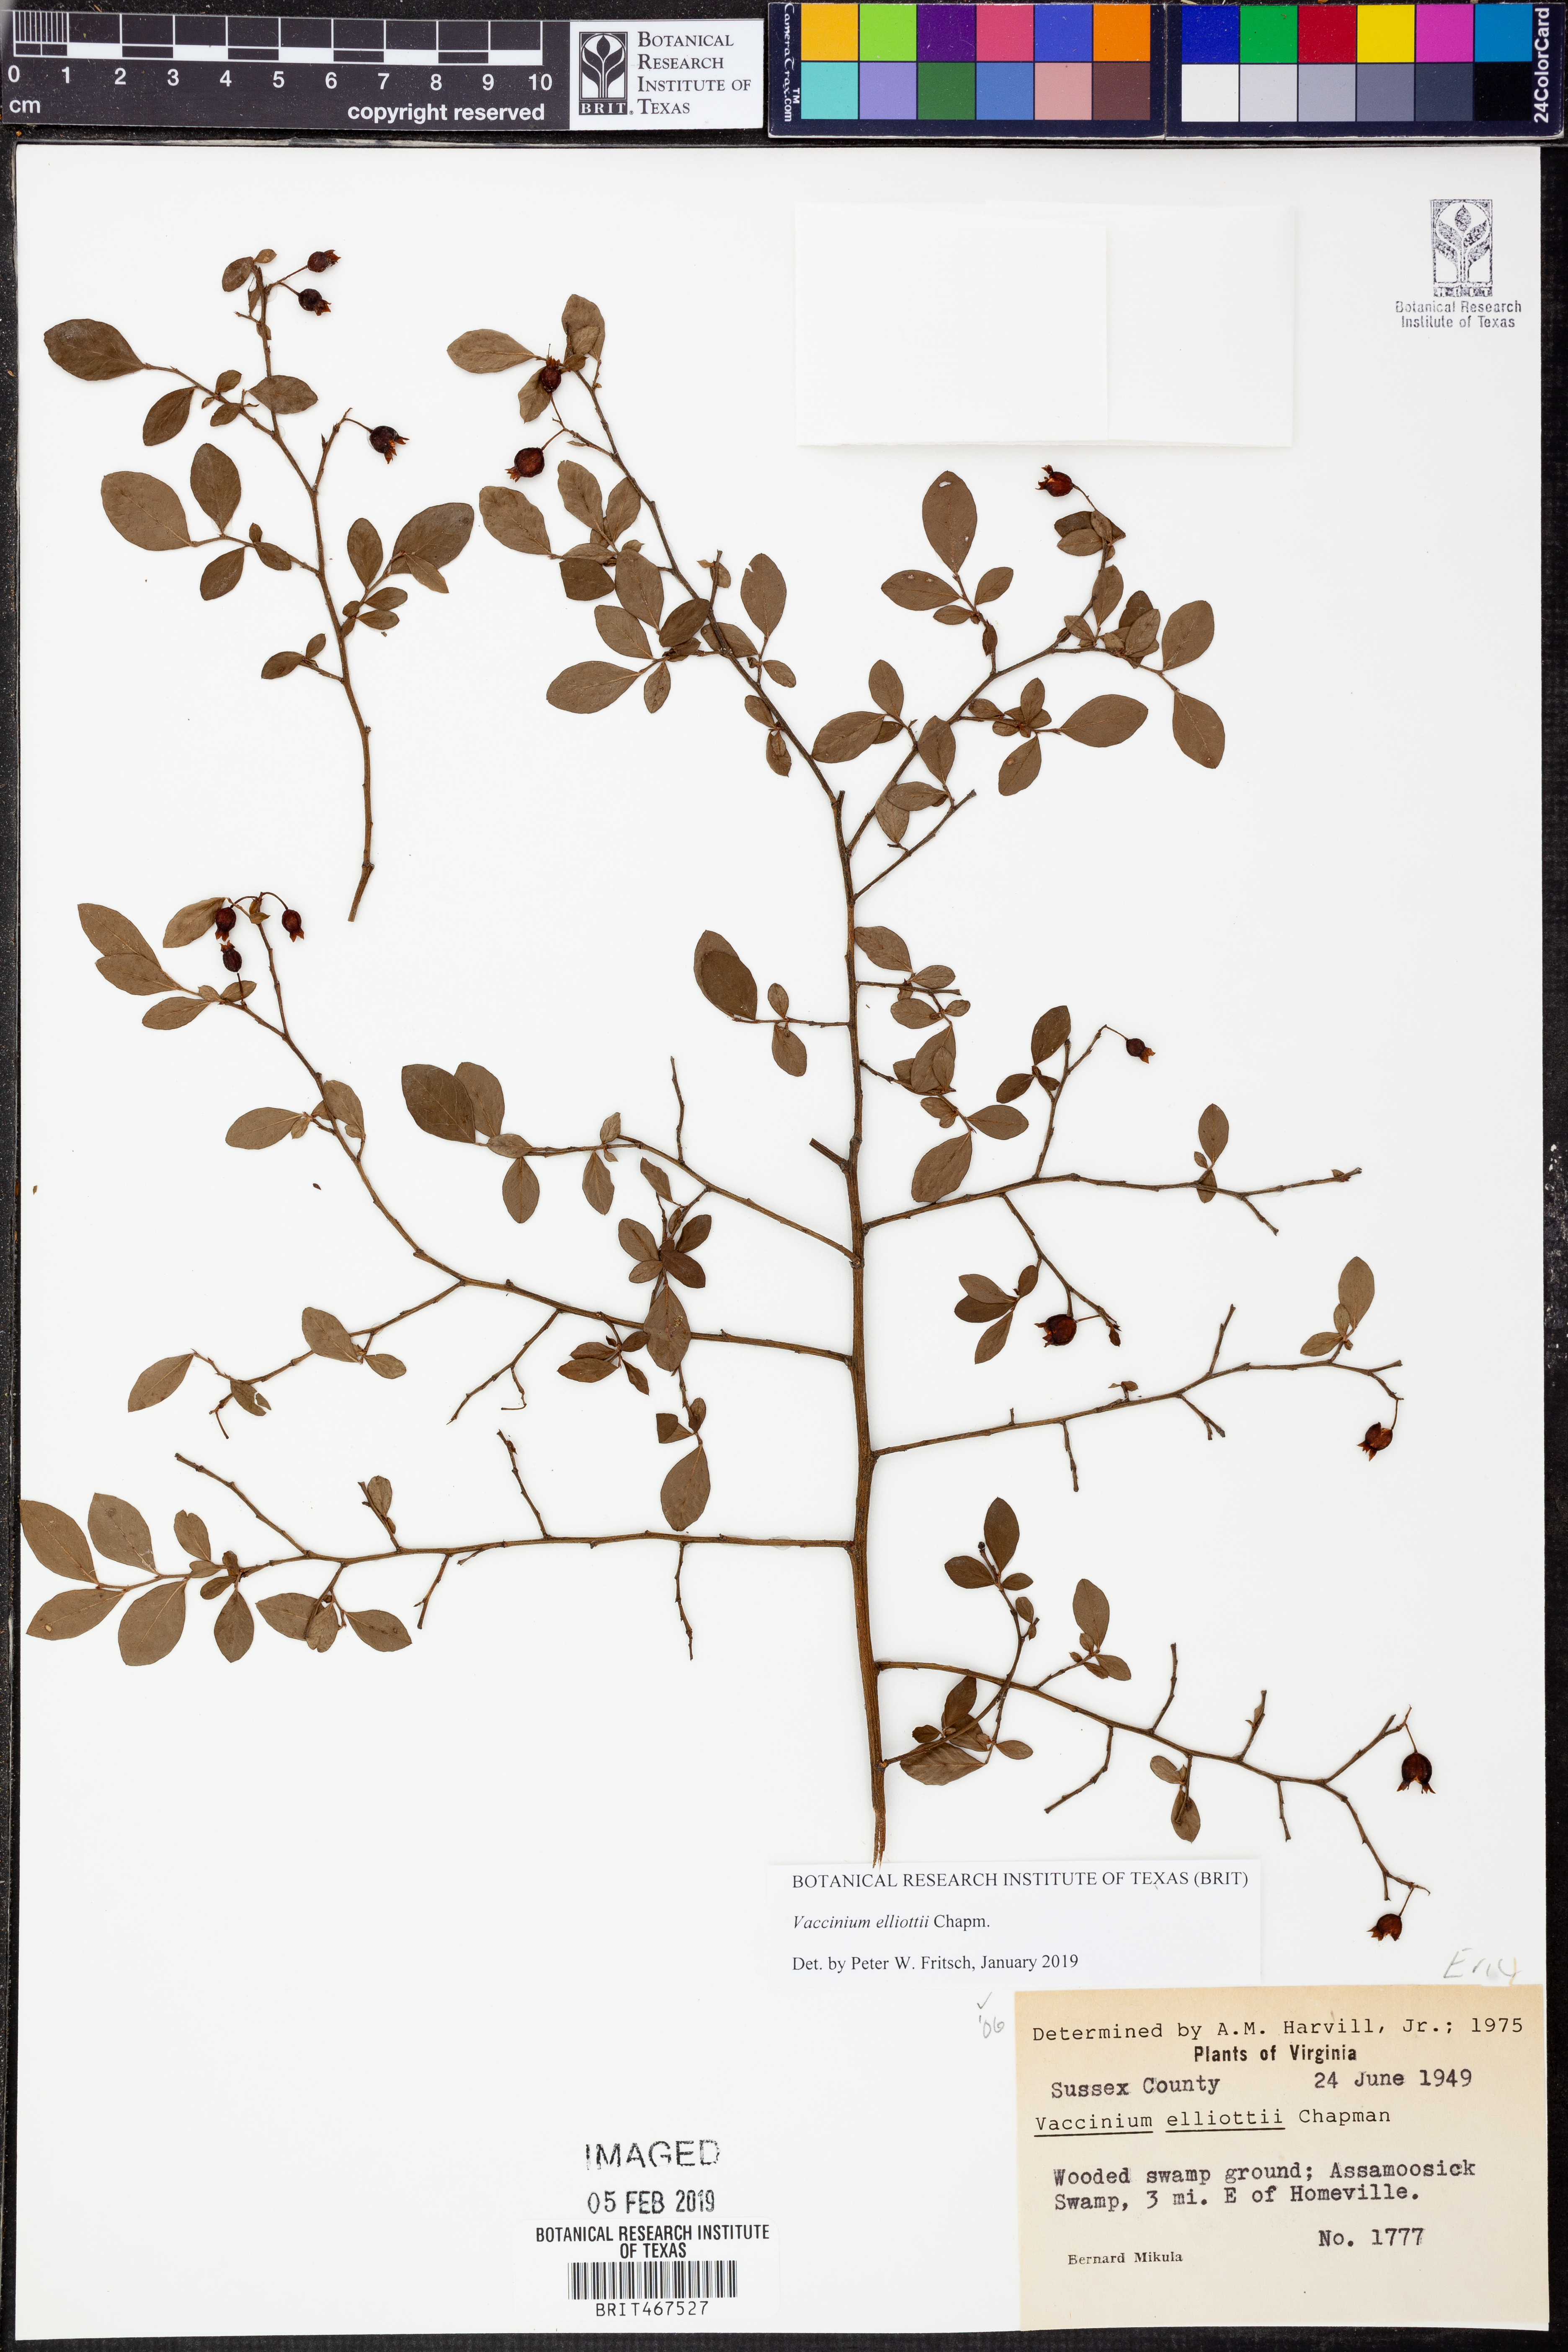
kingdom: Plantae
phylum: Tracheophyta
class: Magnoliopsida
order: Ericales
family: Ericaceae
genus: Vaccinium
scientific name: Vaccinium corymbosum
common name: Blueberry
